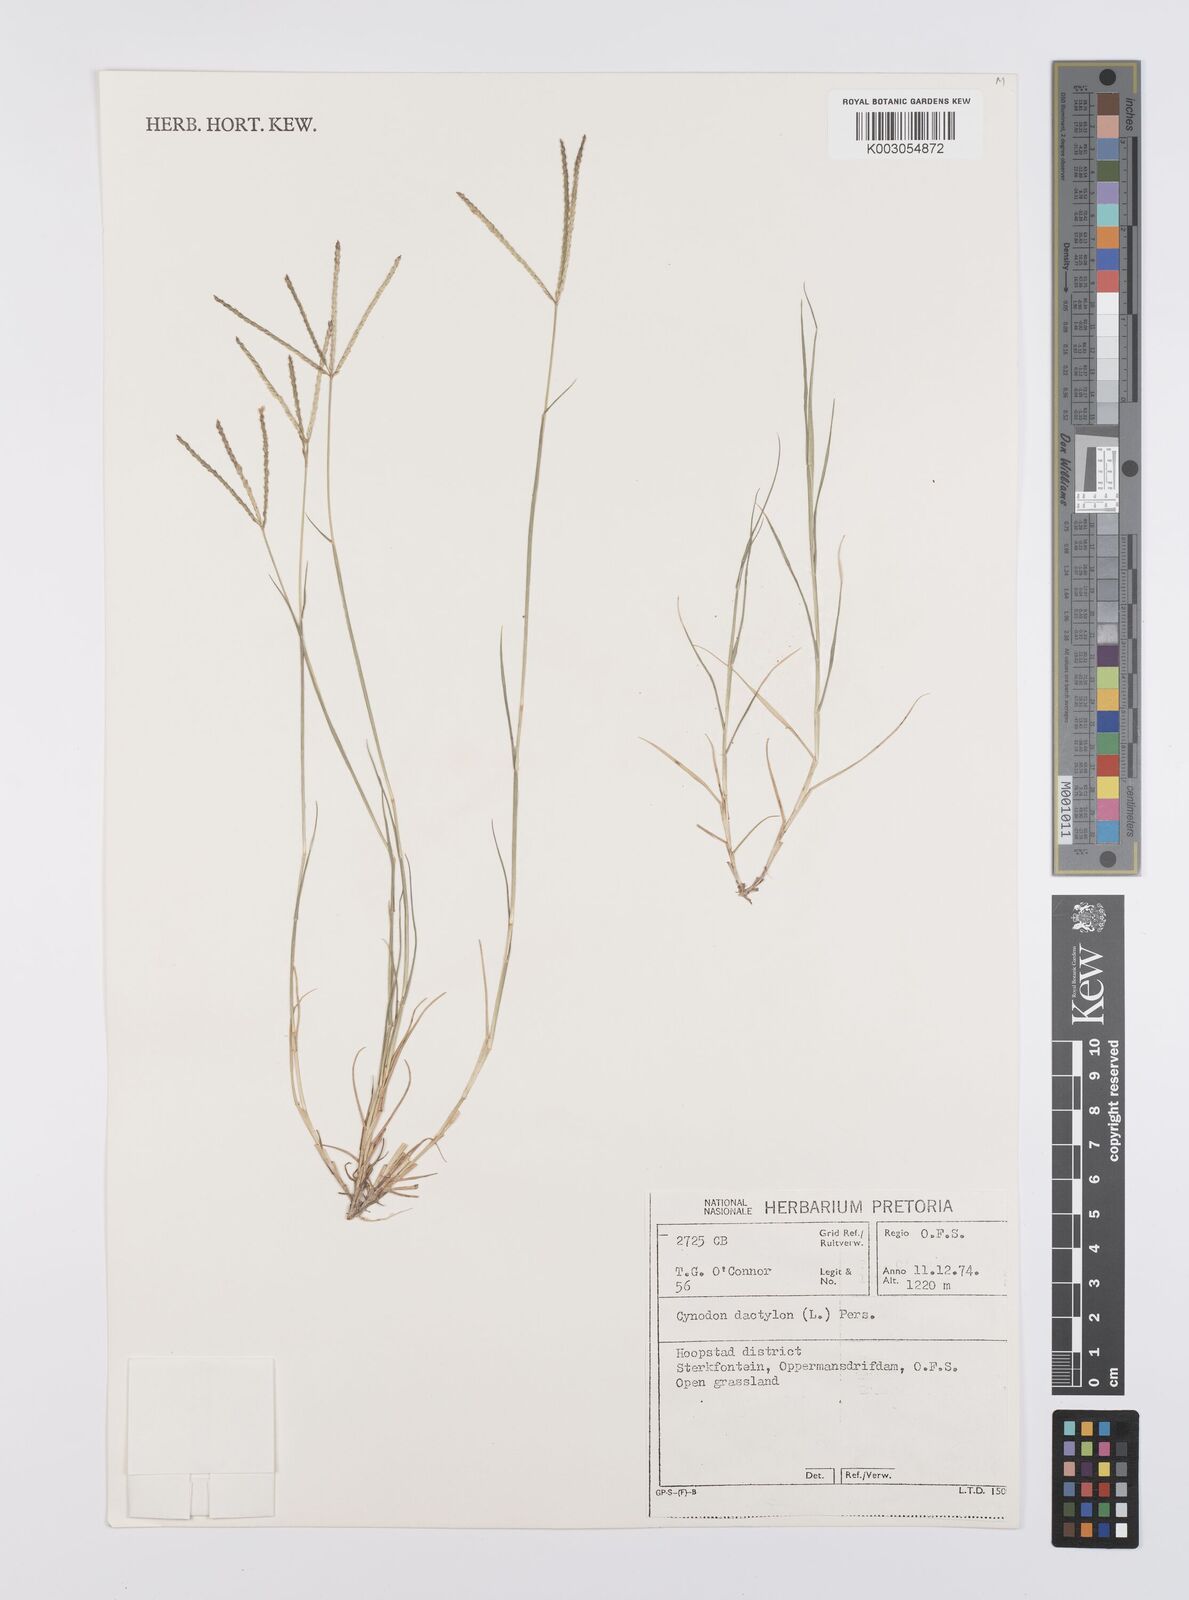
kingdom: Plantae
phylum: Tracheophyta
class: Liliopsida
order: Poales
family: Poaceae
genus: Cynodon
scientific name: Cynodon dactylon
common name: Bermuda grass
